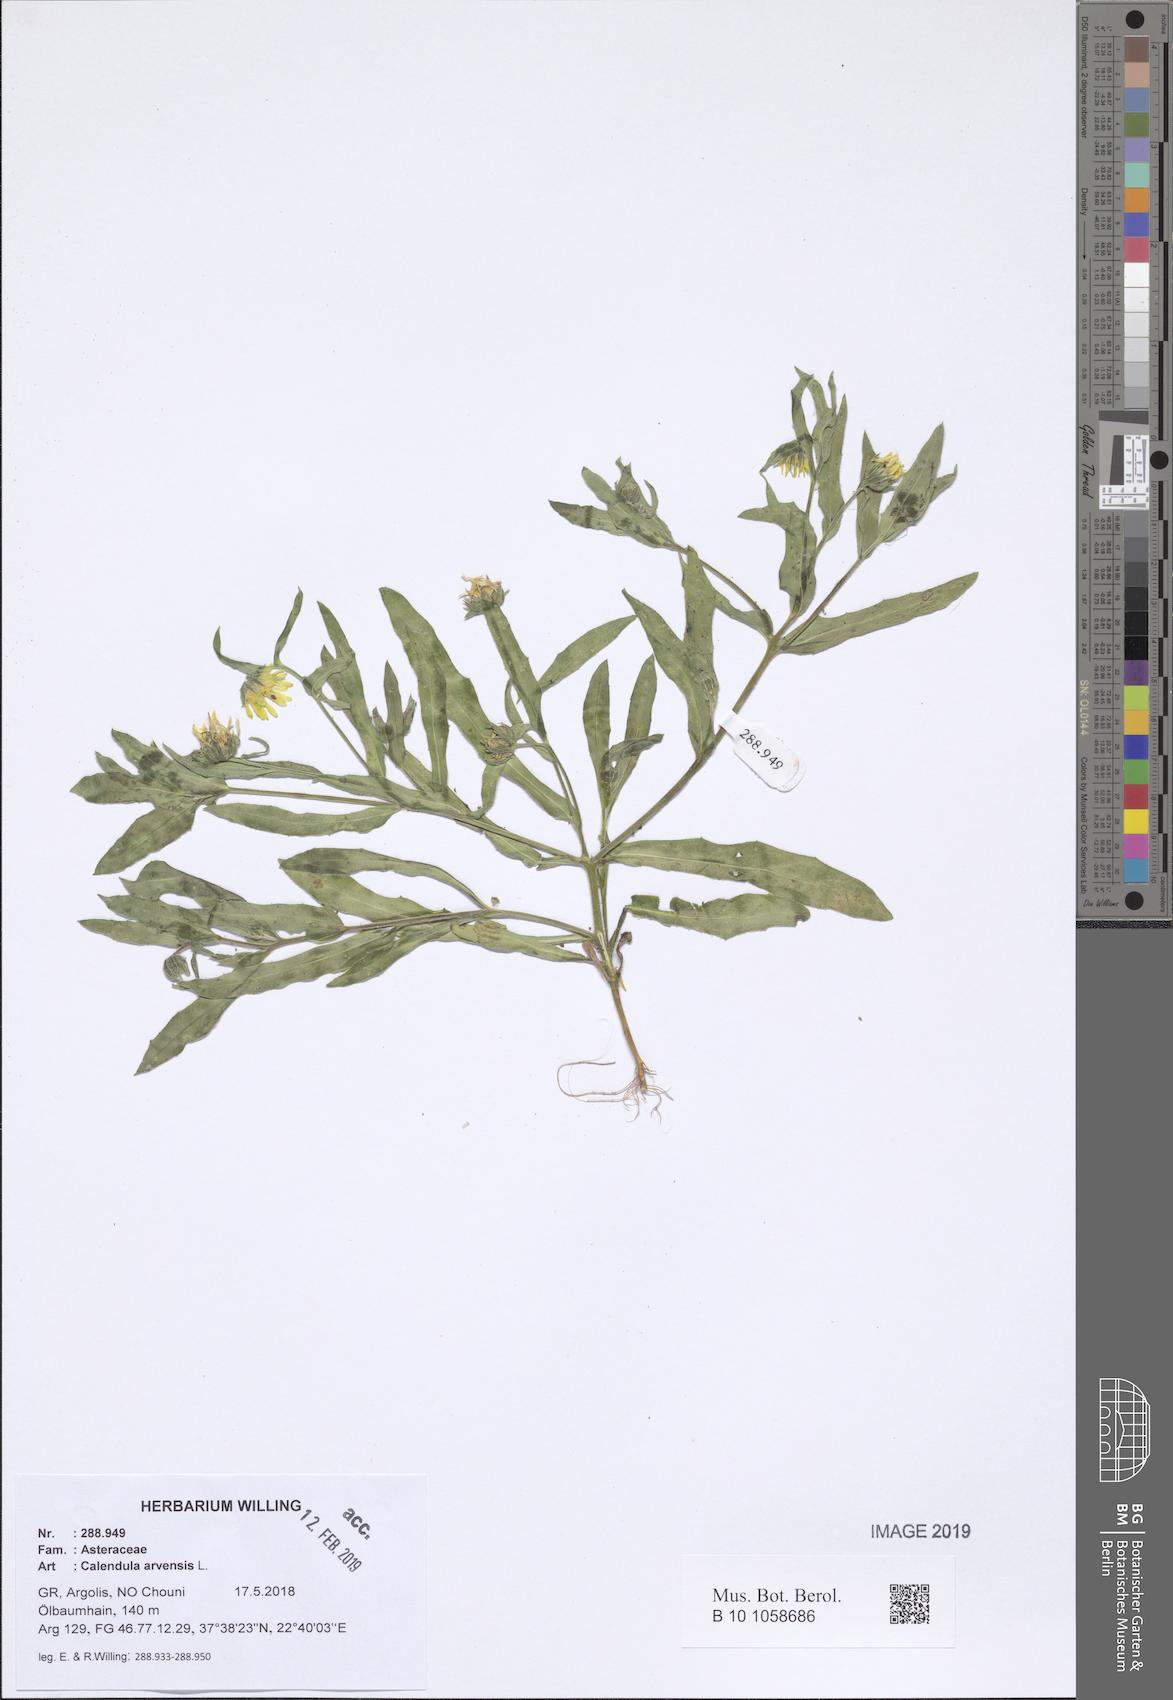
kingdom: Plantae
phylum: Tracheophyta
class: Magnoliopsida
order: Asterales
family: Asteraceae
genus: Calendula
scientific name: Calendula arvensis
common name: Field marigold
